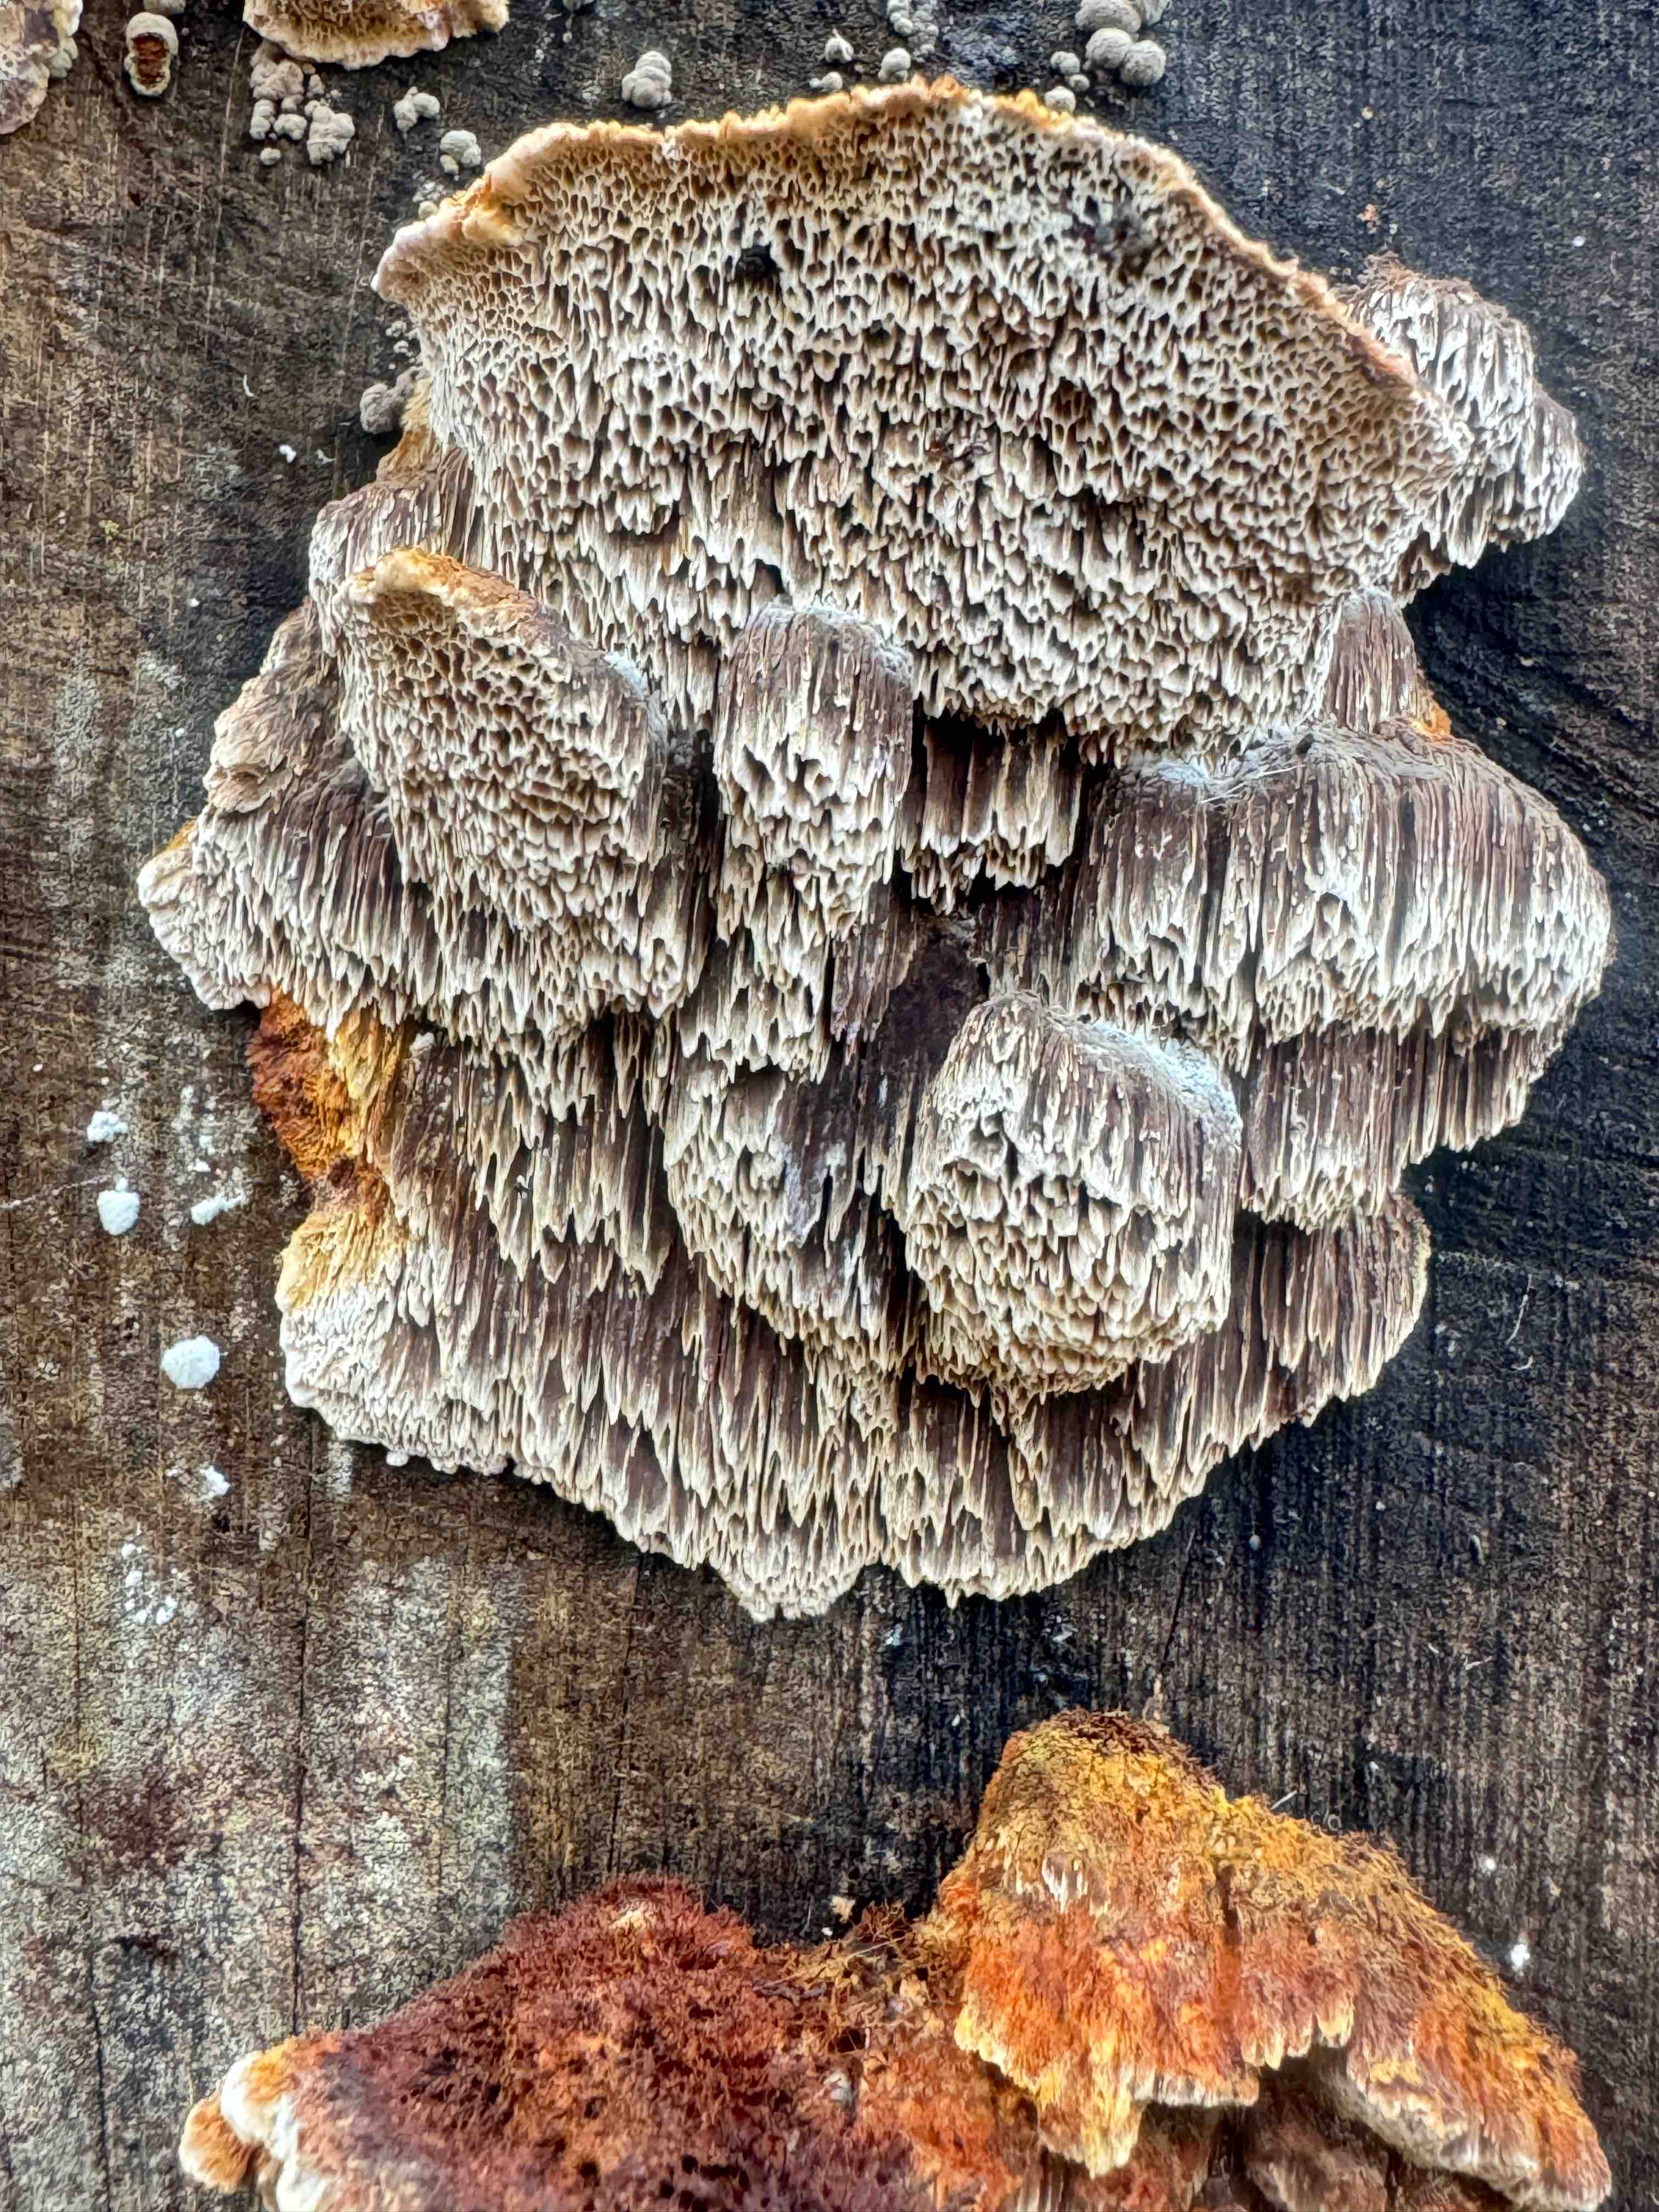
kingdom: Fungi
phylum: Basidiomycota
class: Agaricomycetes
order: Hymenochaetales
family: Hymenochaetaceae
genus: Mensularia
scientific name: Mensularia nodulosa
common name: bøge-spejlporesvamp
